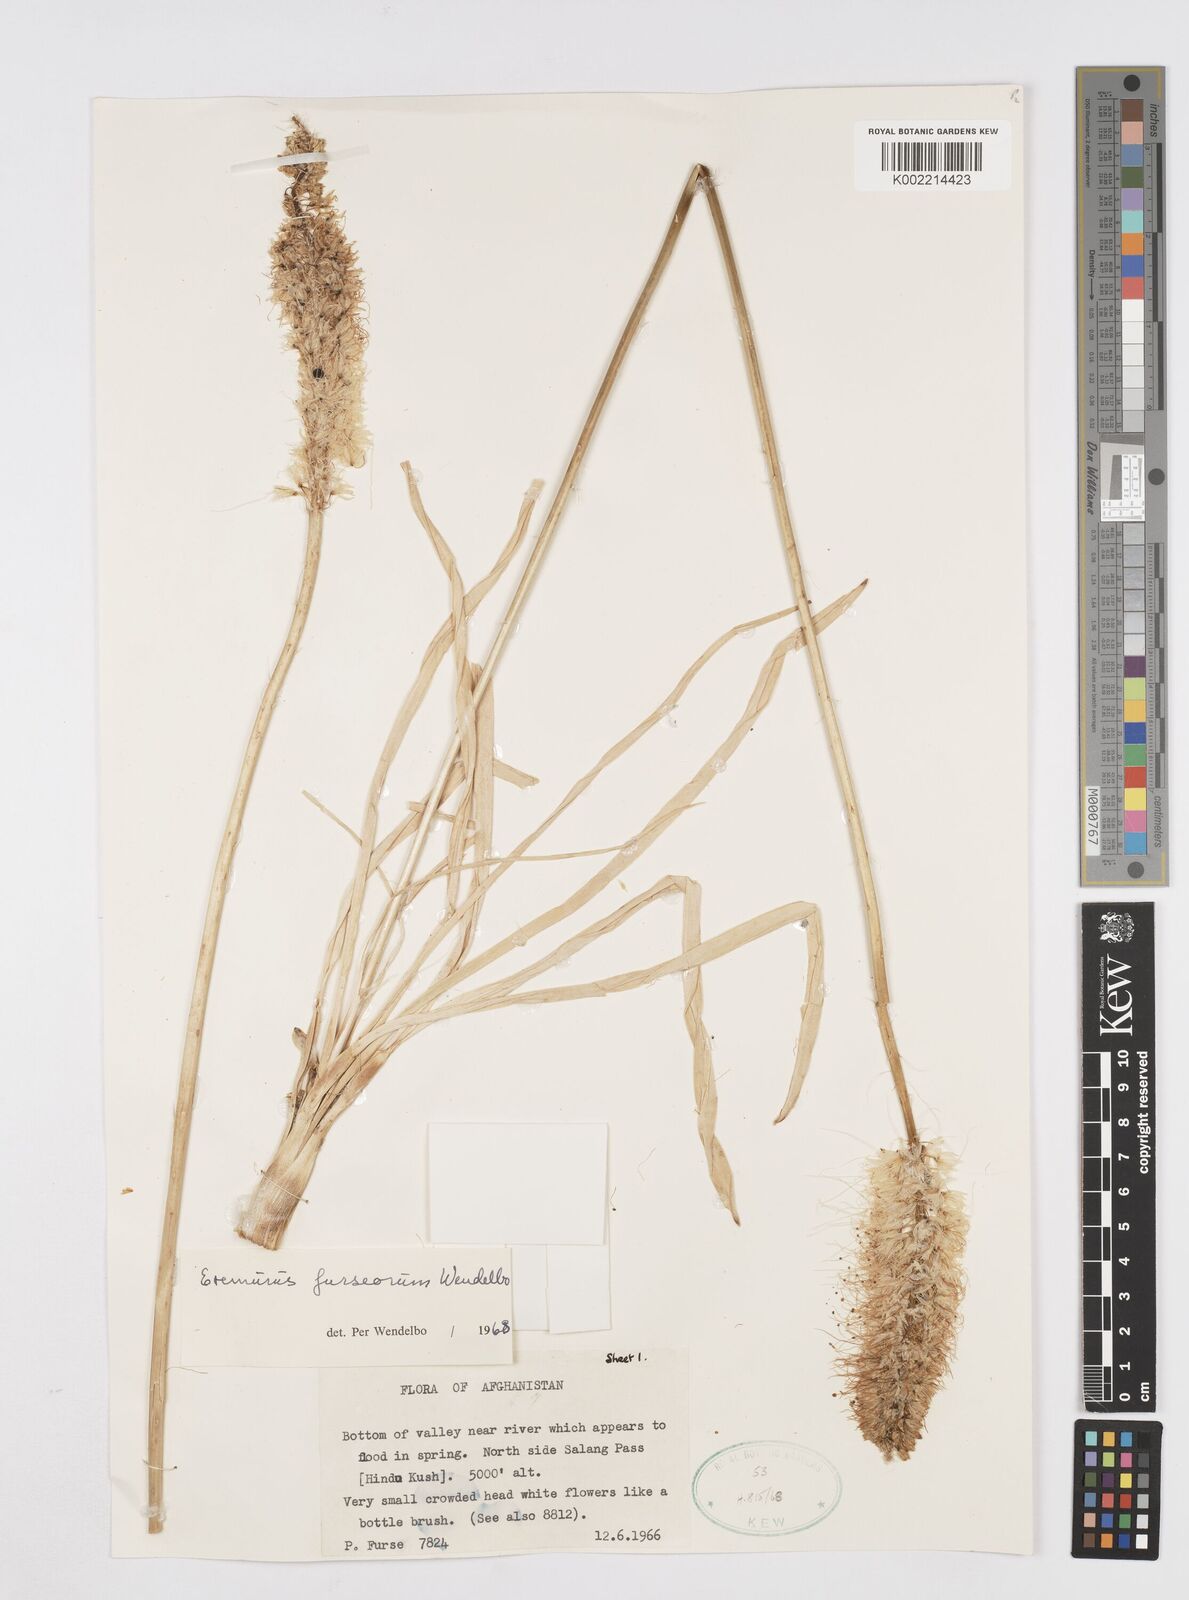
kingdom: Plantae
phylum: Tracheophyta
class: Liliopsida
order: Asparagales
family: Asphodelaceae
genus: Eremurus
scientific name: Eremurus furseorum
